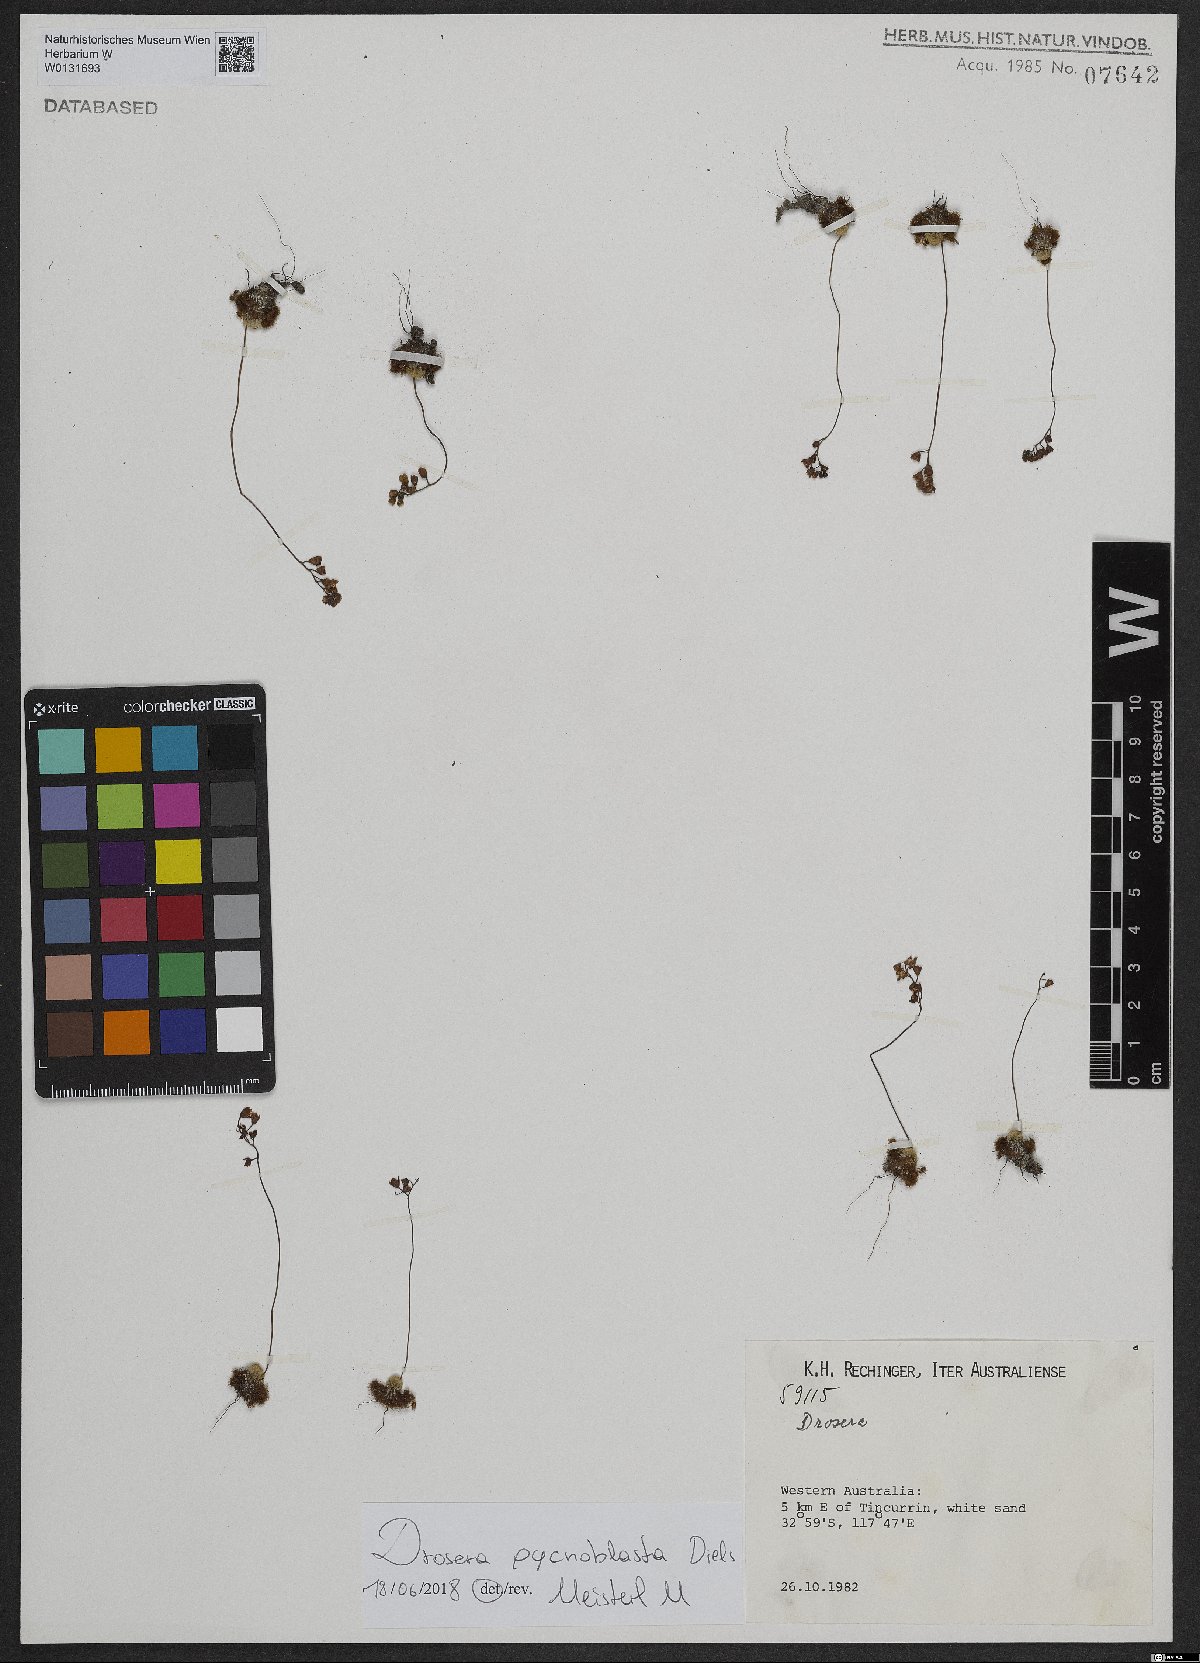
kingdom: Plantae
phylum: Tracheophyta
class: Magnoliopsida
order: Caryophyllales
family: Droseraceae
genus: Drosera
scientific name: Drosera pycnoblasta
